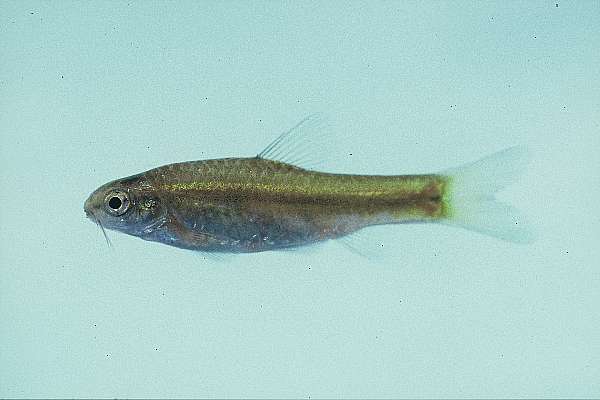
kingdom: Animalia
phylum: Chordata
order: Cypriniformes
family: Cyprinidae
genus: Barbus
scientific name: Barbus
